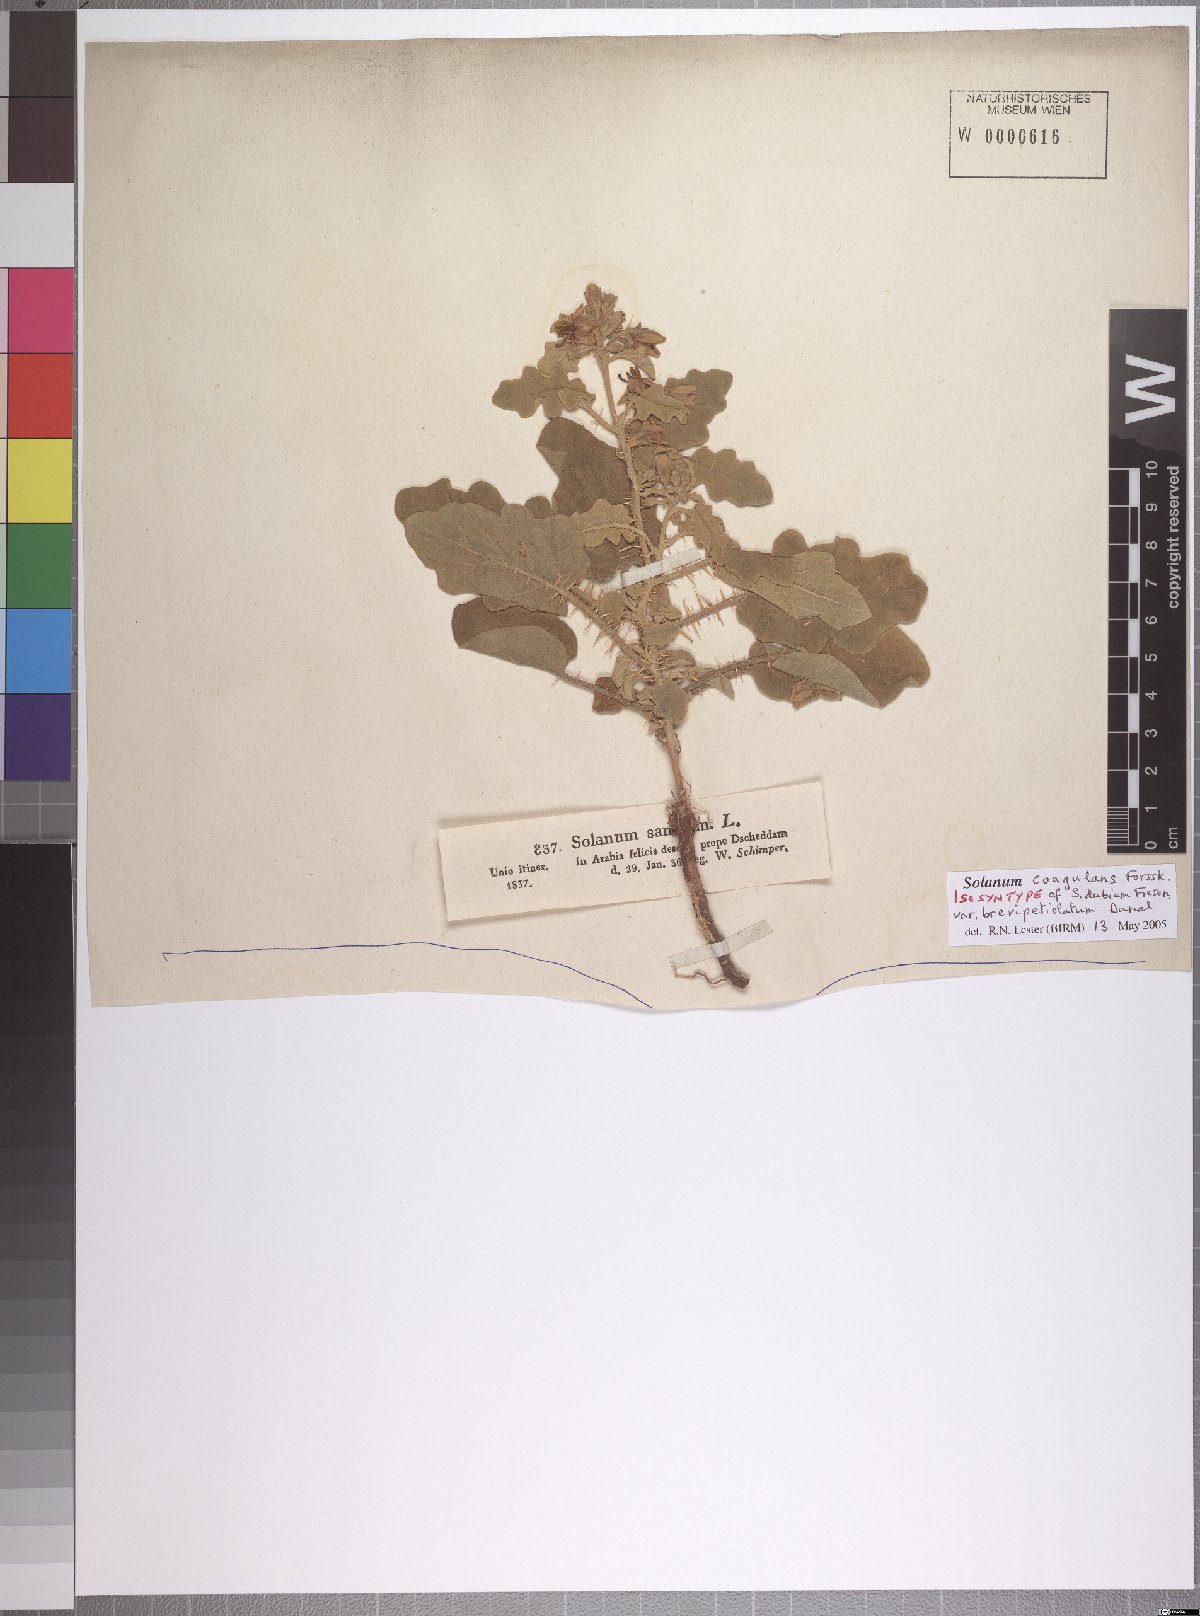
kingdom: Plantae
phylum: Tracheophyta
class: Magnoliopsida
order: Solanales
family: Solanaceae
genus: Solanum
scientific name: Solanum coagulans
